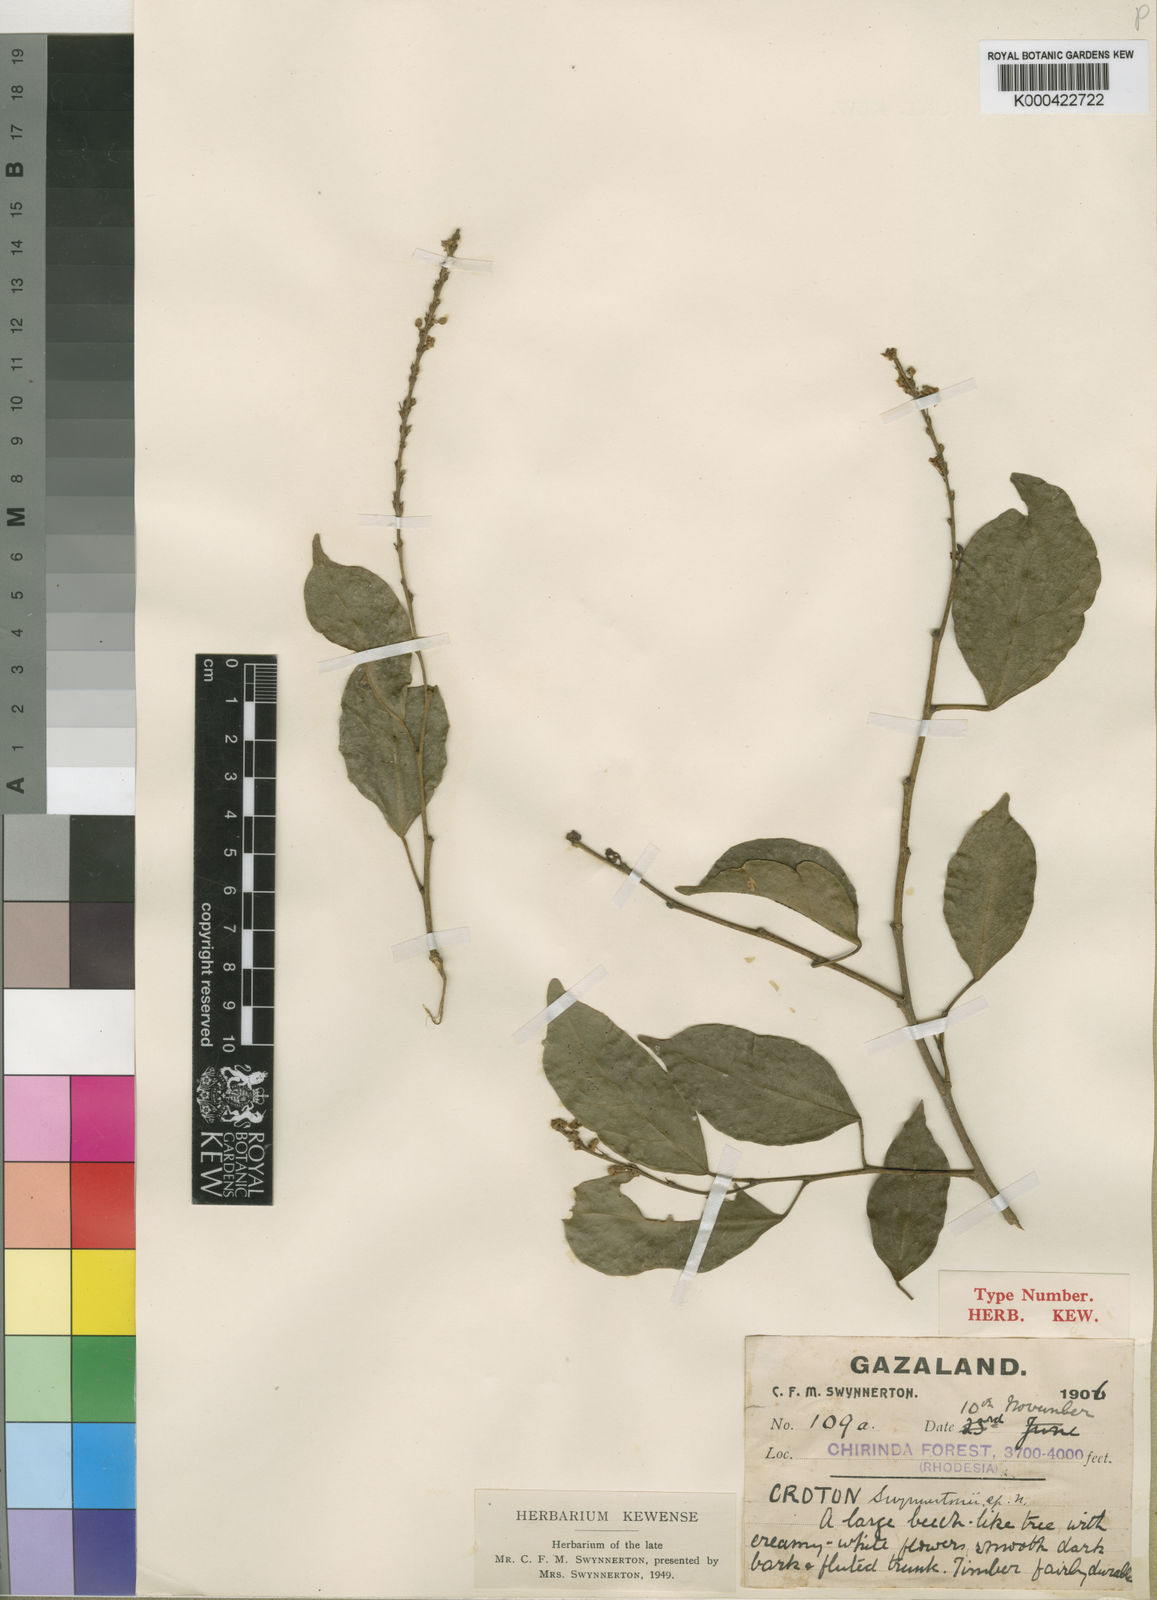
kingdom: Plantae
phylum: Tracheophyta
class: Magnoliopsida
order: Malpighiales
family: Euphorbiaceae
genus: Tannodia
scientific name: Tannodia swynnertonii
